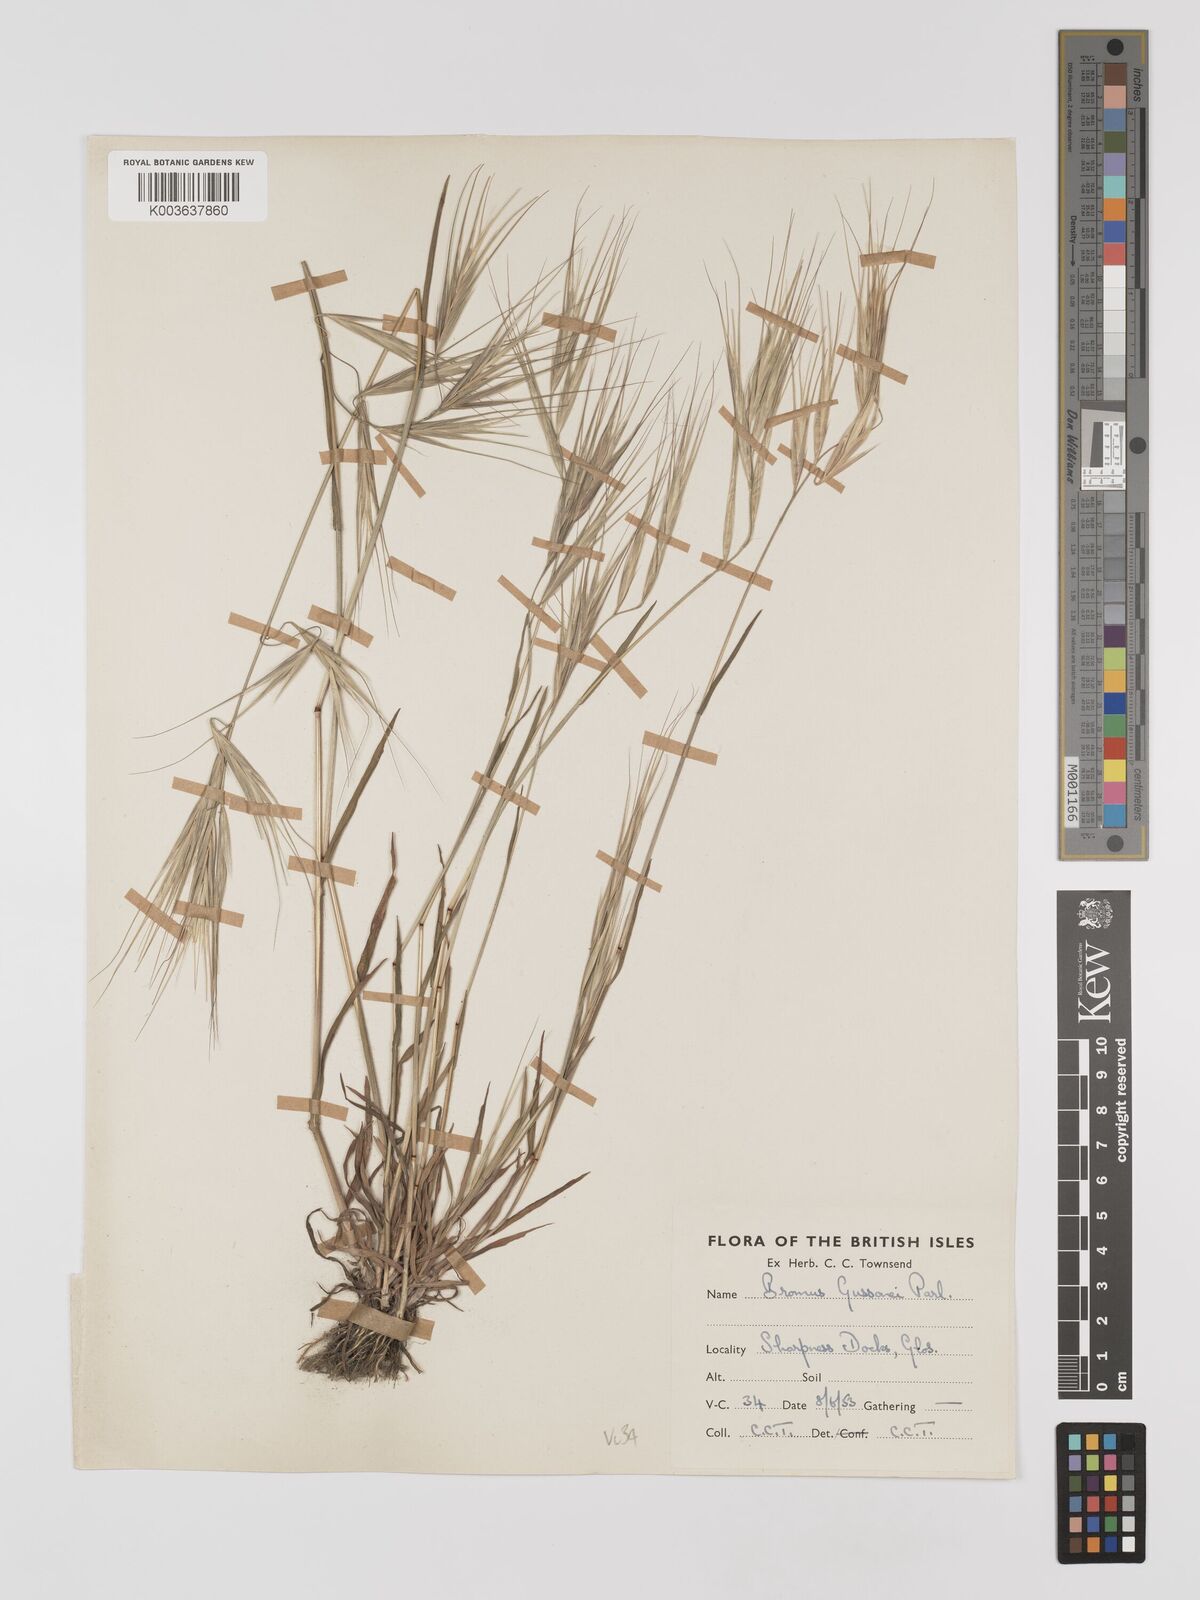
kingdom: Plantae
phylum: Tracheophyta
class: Liliopsida
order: Poales
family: Poaceae
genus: Bromus
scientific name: Bromus
